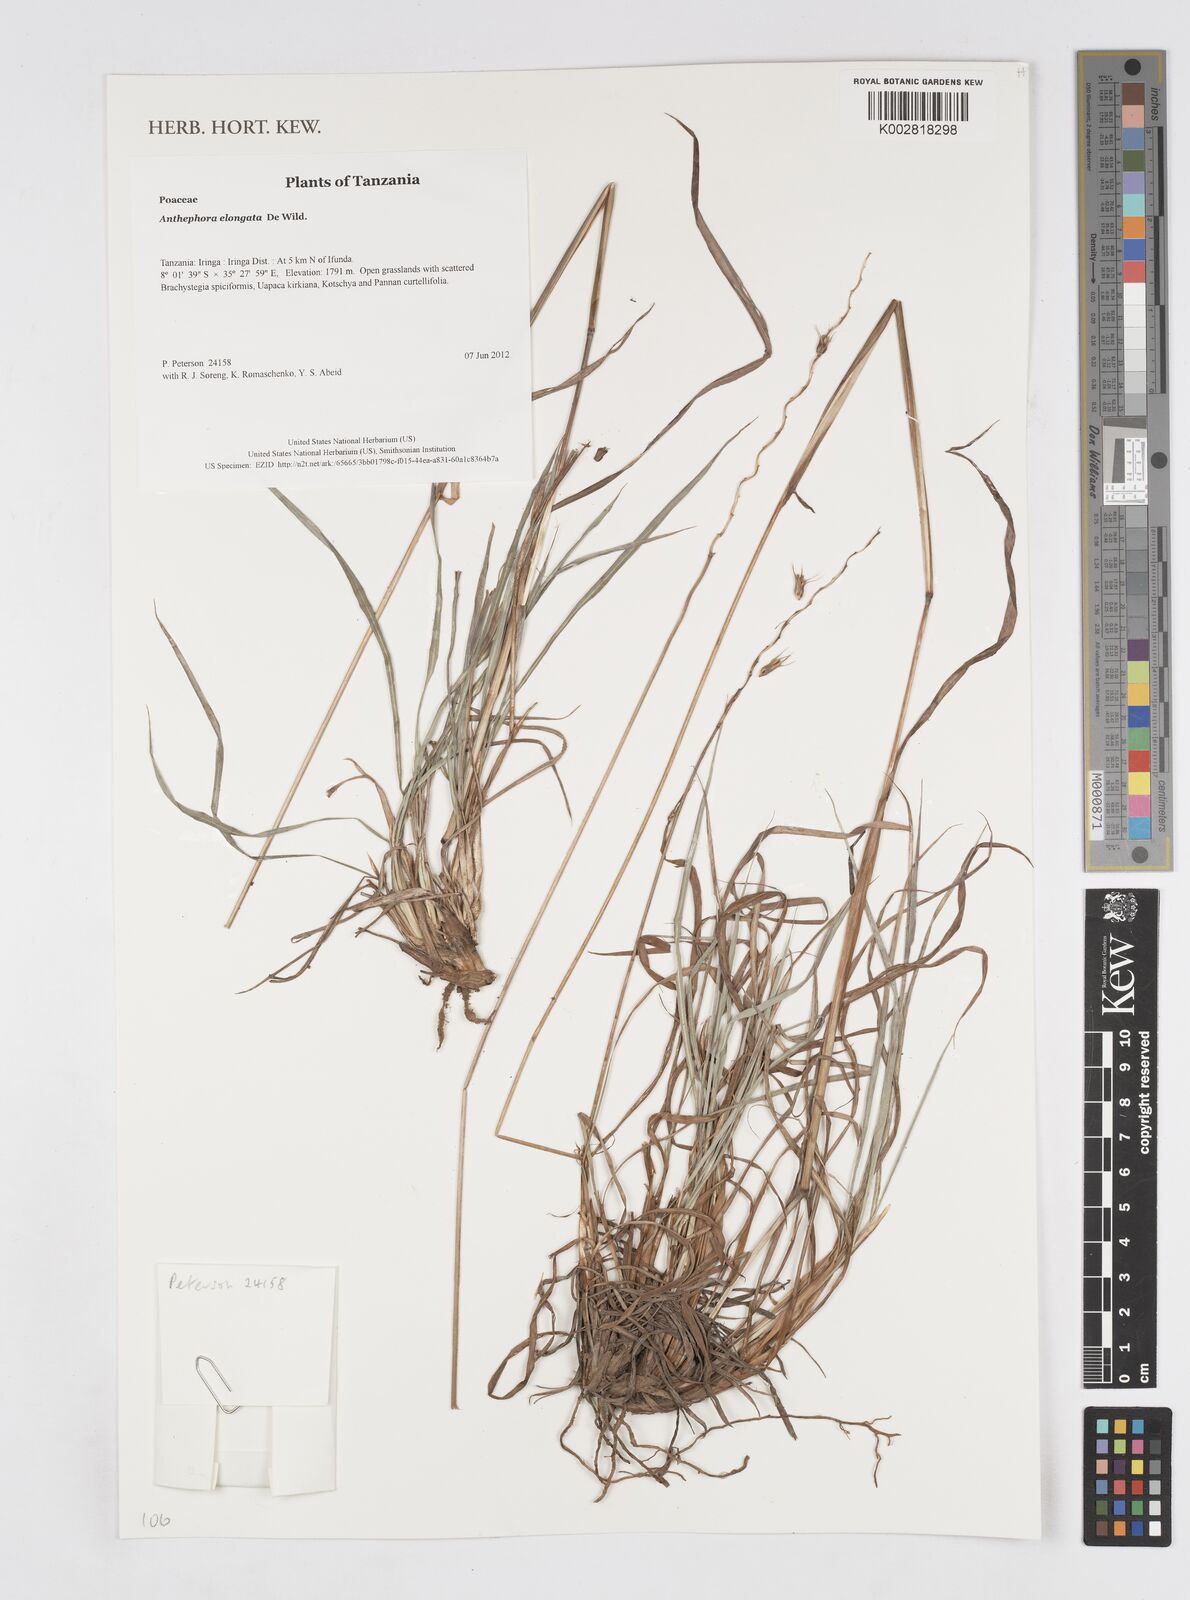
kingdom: Plantae
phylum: Tracheophyta
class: Liliopsida
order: Poales
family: Poaceae
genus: Anthephora
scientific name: Anthephora elongata
